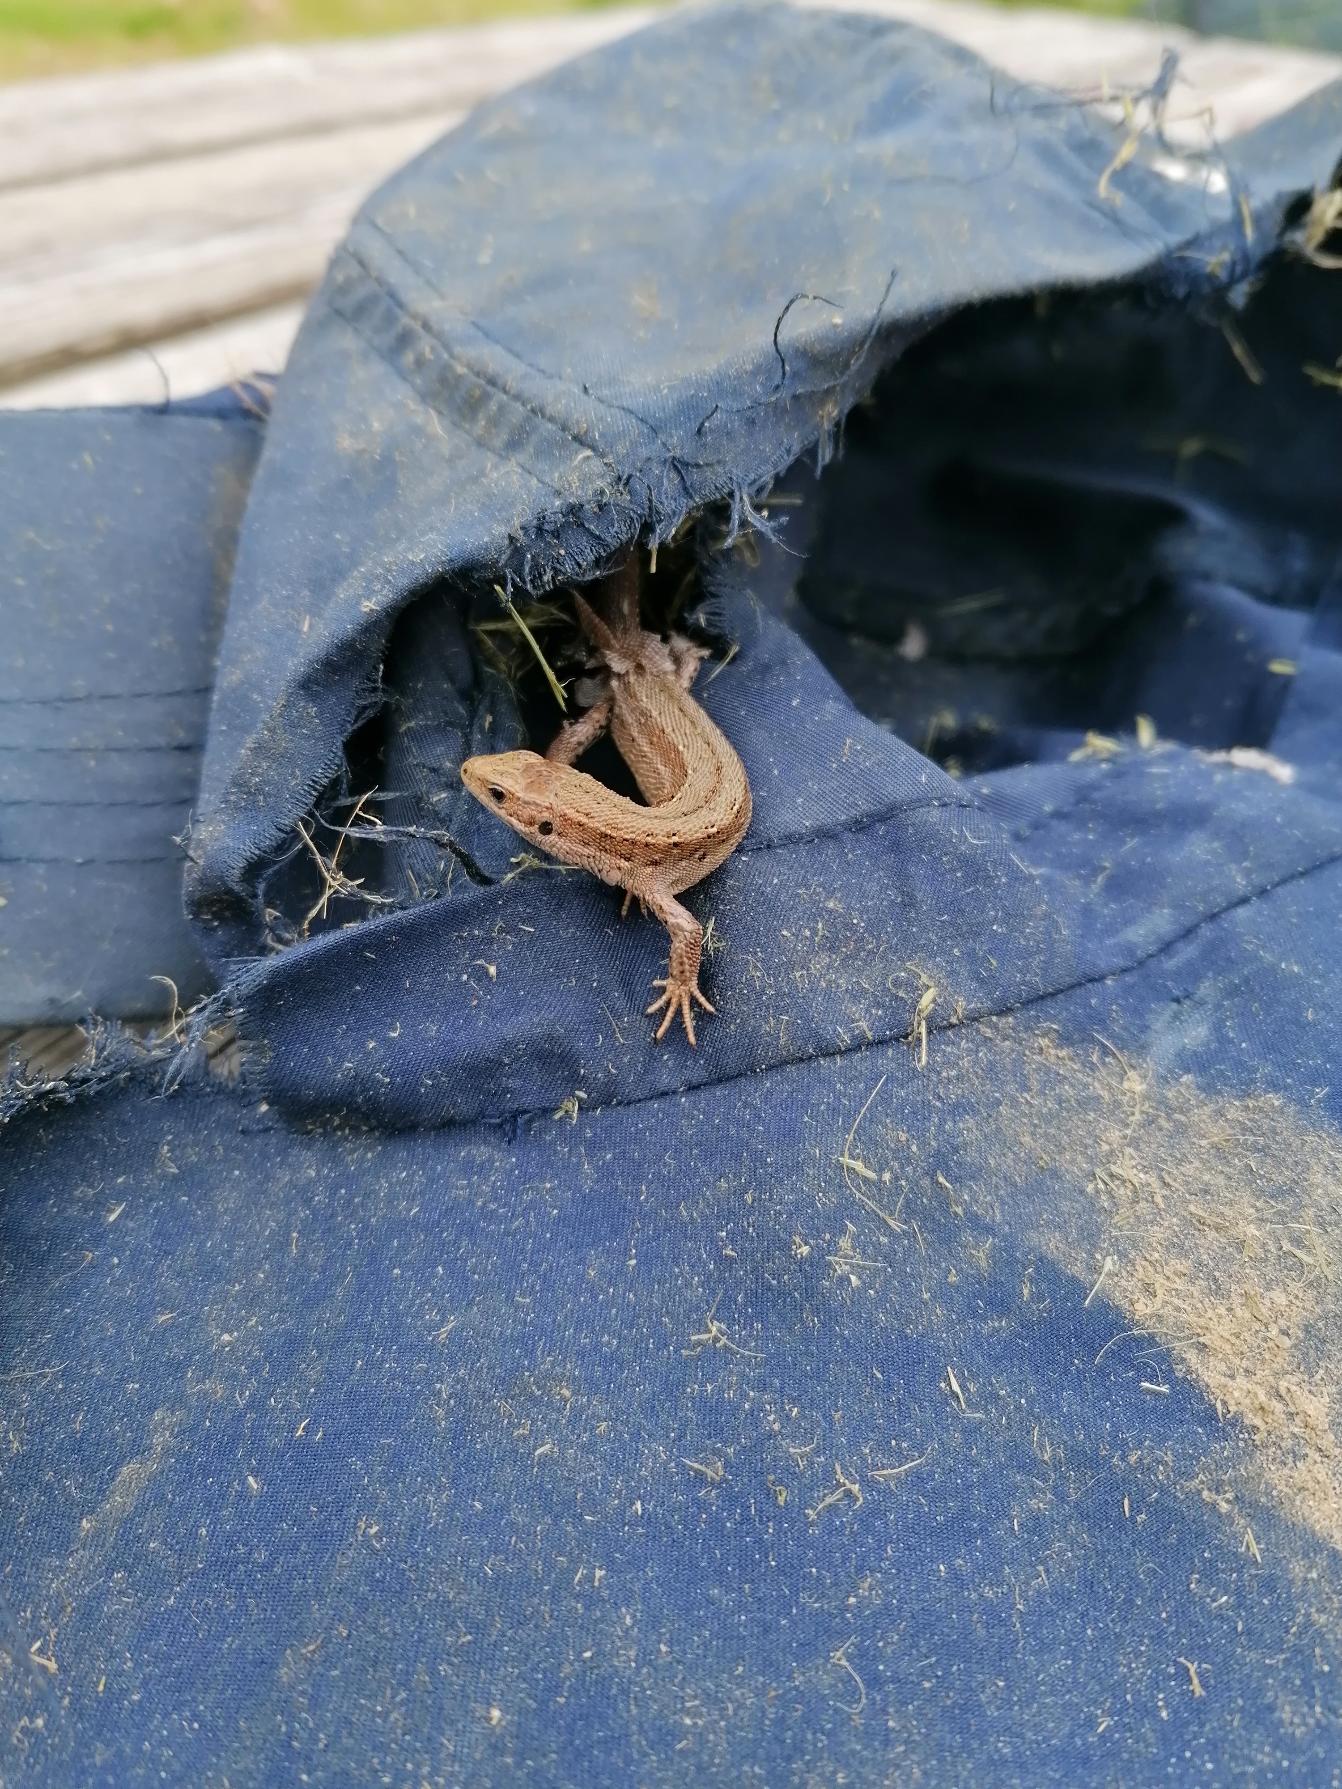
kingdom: Animalia
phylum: Chordata
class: Squamata
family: Lacertidae
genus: Zootoca
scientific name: Zootoca vivipara
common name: Skovfirben
